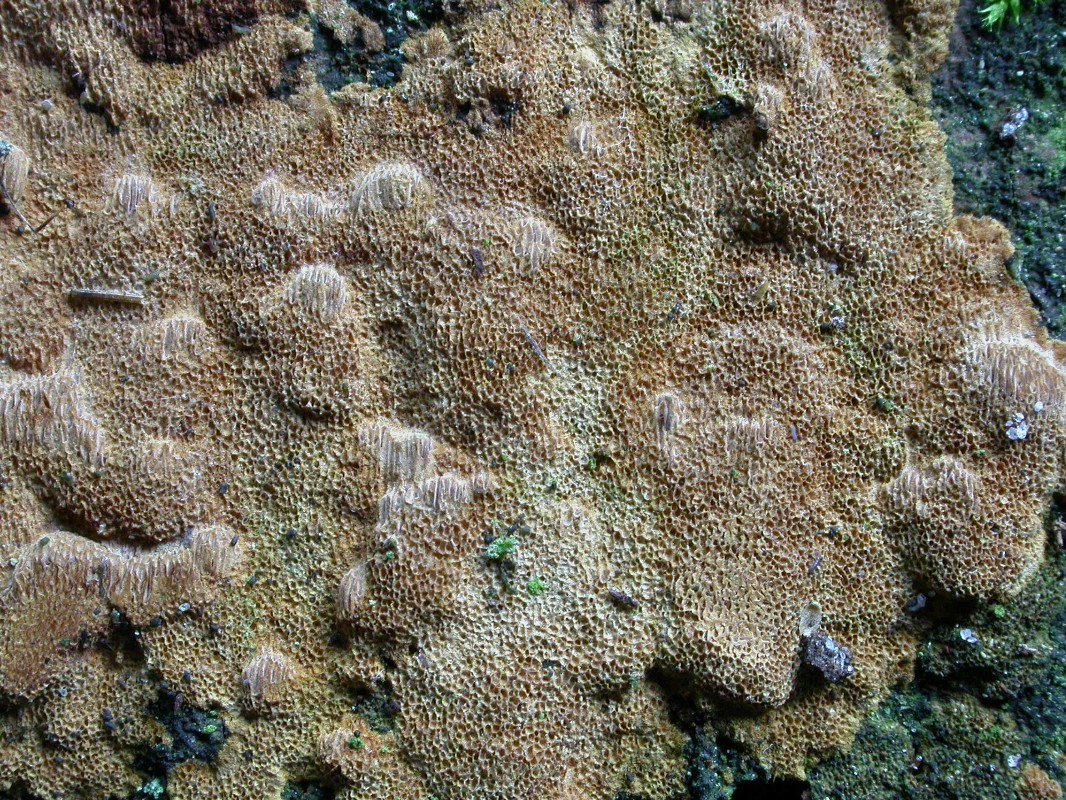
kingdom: Fungi
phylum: Basidiomycota
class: Agaricomycetes
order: Hymenochaetales
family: Hymenochaetaceae
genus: Fuscoporia
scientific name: Fuscoporia ferrea
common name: skorpe-ildporesvamp
